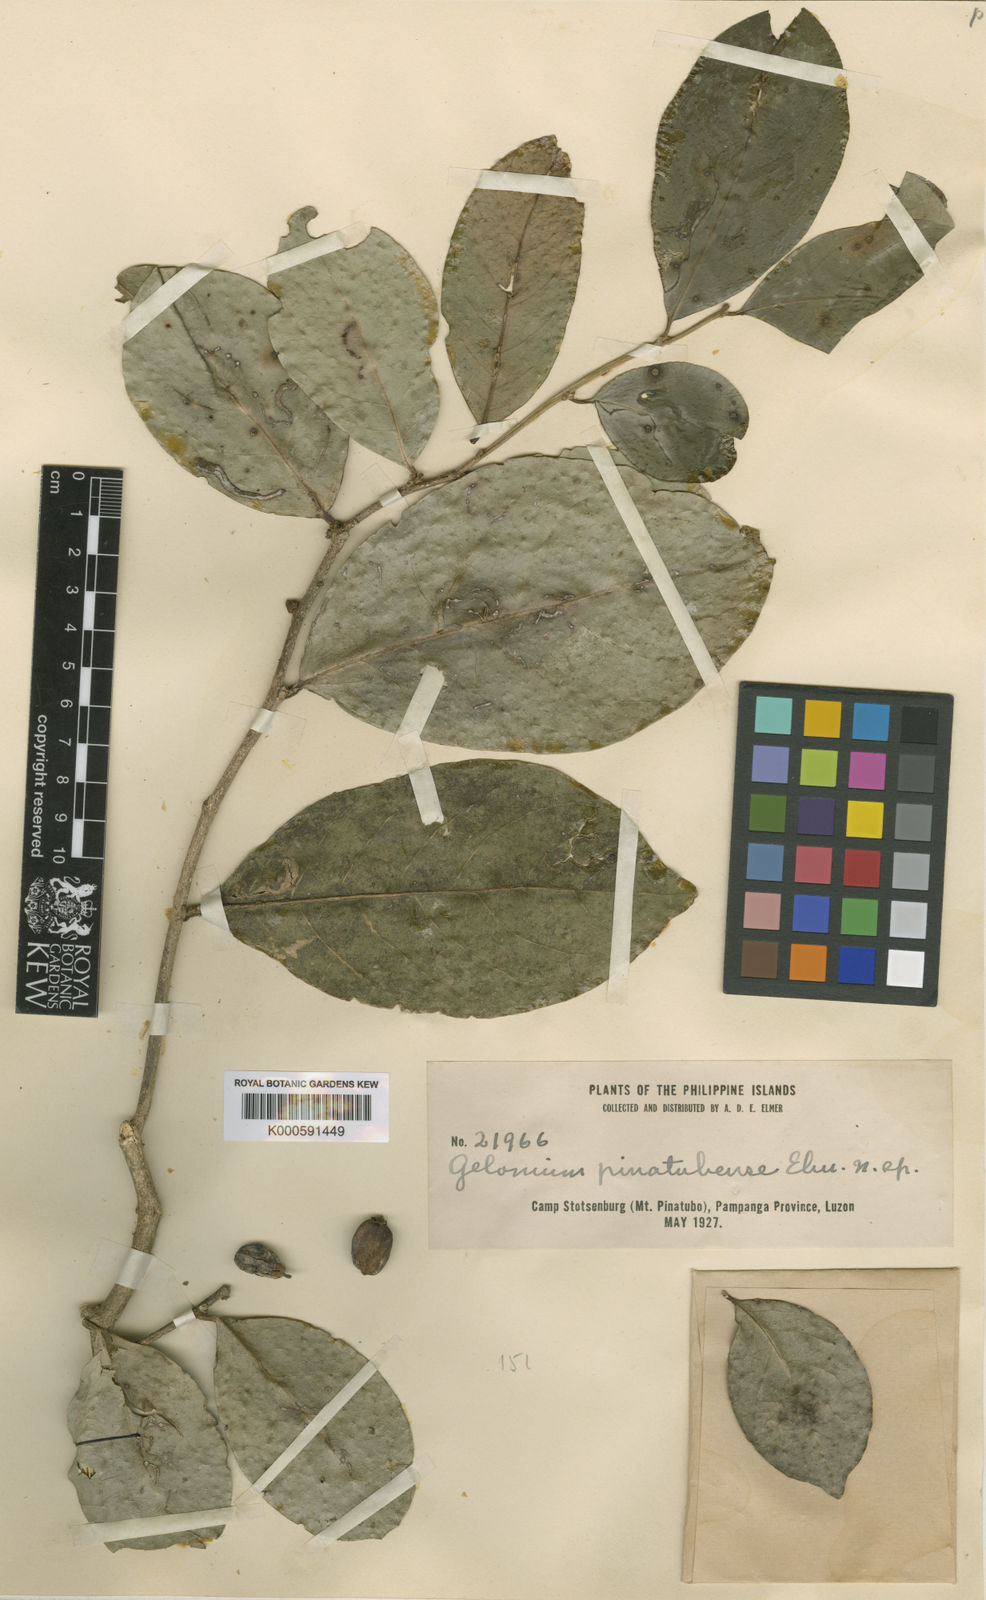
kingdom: Plantae
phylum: Tracheophyta
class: Magnoliopsida
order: Malpighiales
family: Salicaceae
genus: Casearia
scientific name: Casearia trivalvis
